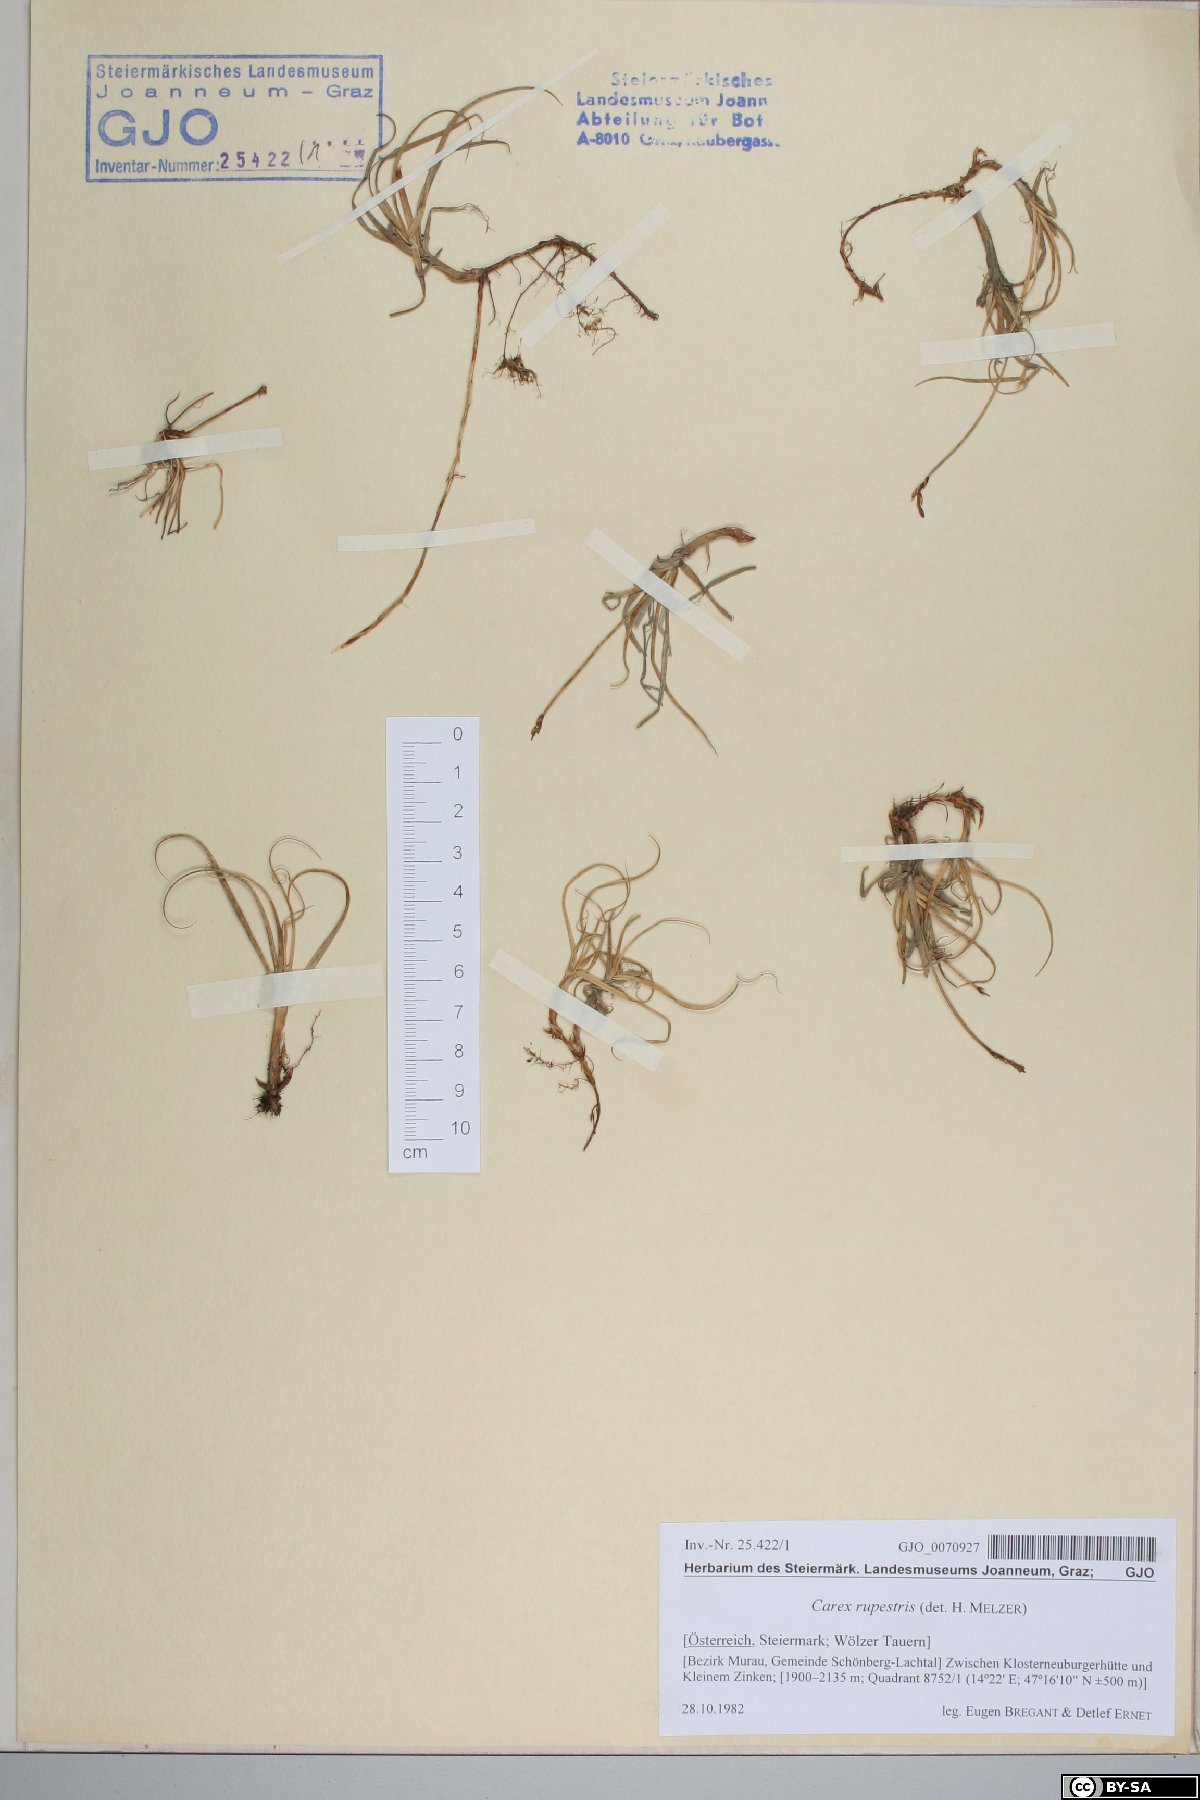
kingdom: Plantae
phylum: Tracheophyta
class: Liliopsida
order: Poales
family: Cyperaceae
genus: Carex
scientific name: Carex rupestris
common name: Rock sedge
